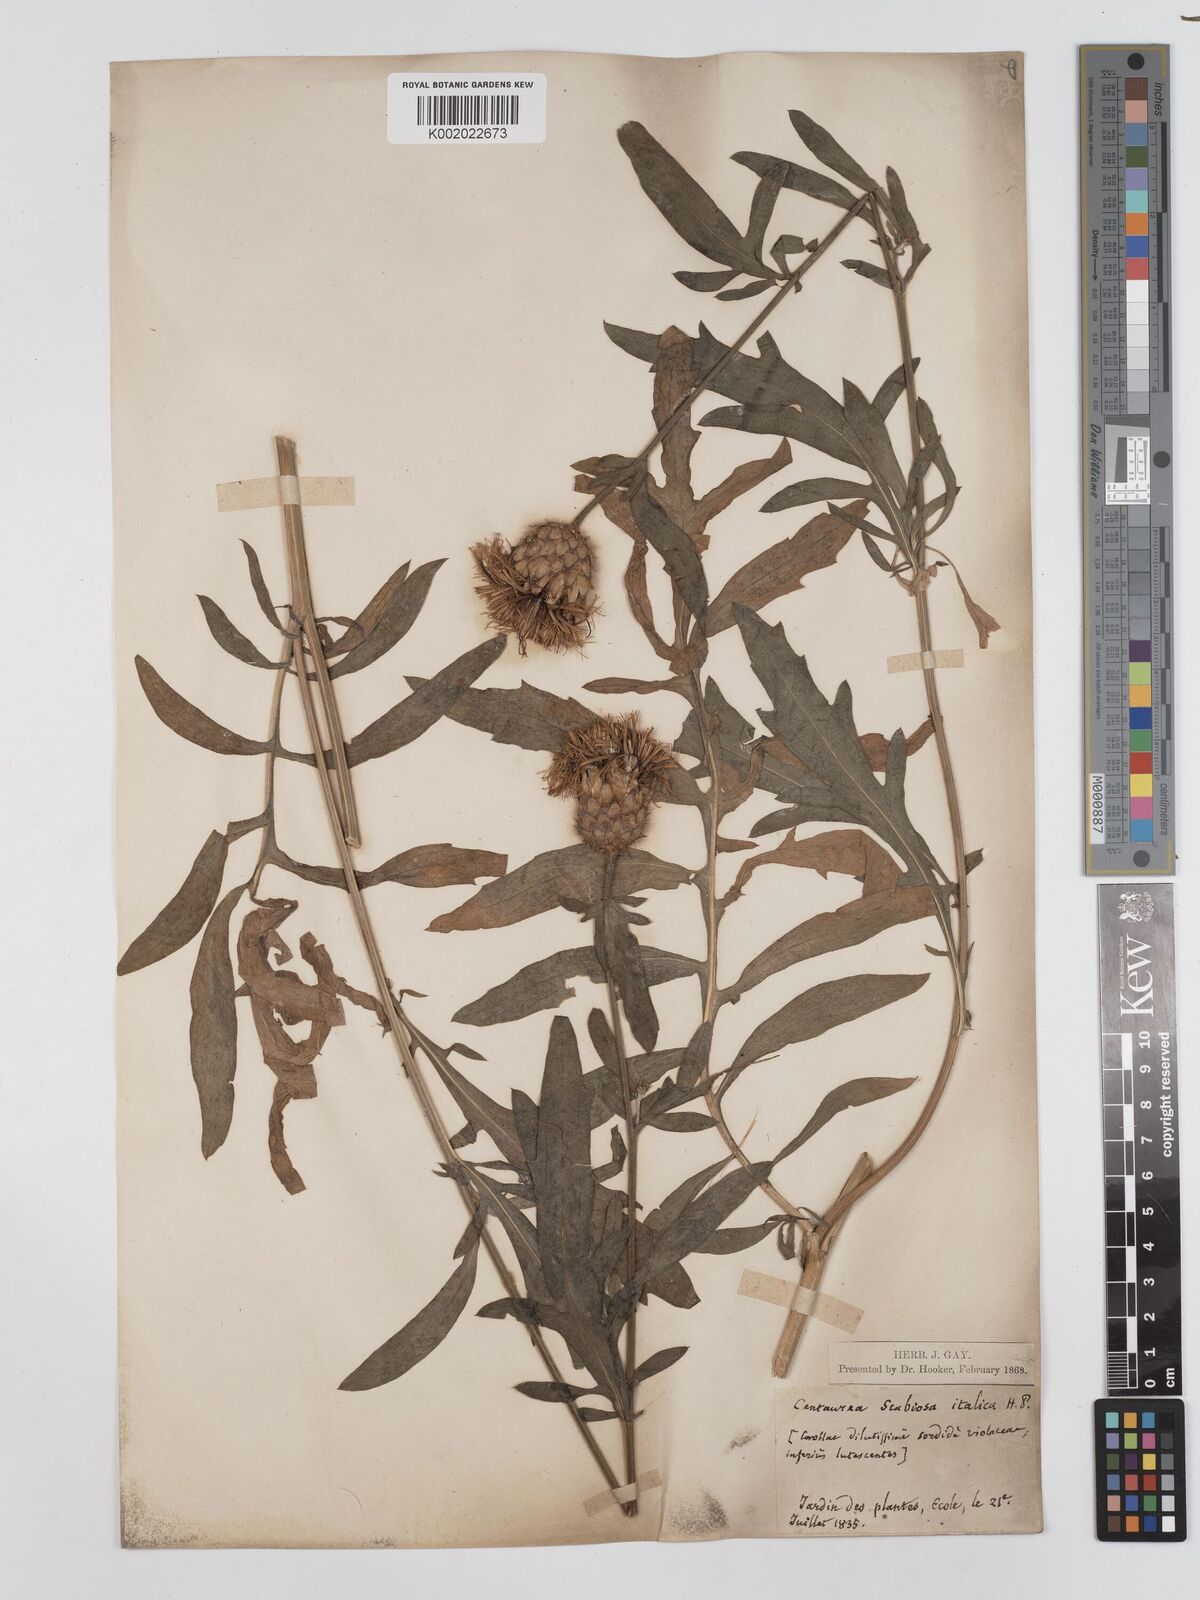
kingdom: Plantae
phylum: Tracheophyta
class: Magnoliopsida
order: Asterales
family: Asteraceae
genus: Centaurea
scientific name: Centaurea apiculata
